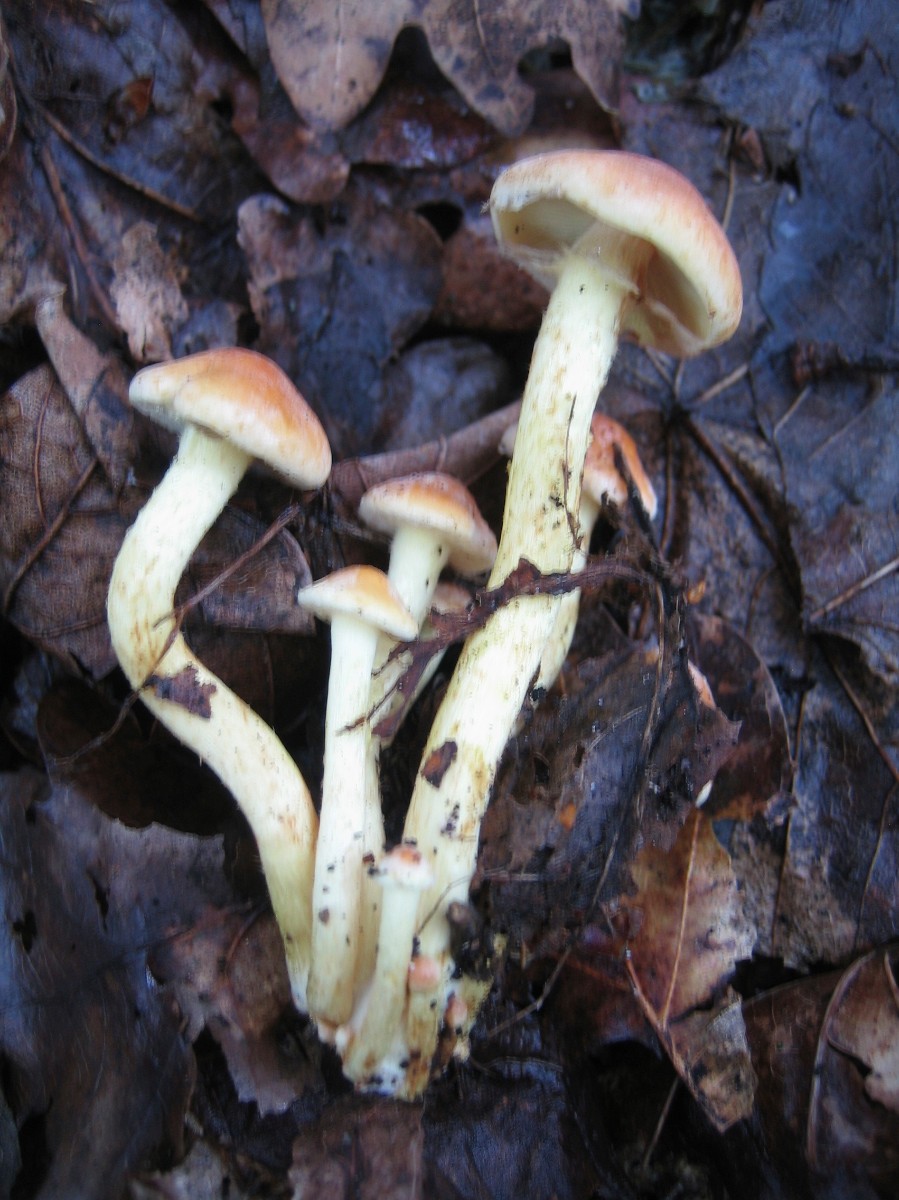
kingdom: Fungi
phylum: Basidiomycota
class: Agaricomycetes
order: Agaricales
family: Strophariaceae
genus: Hypholoma
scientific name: Hypholoma fasciculare
